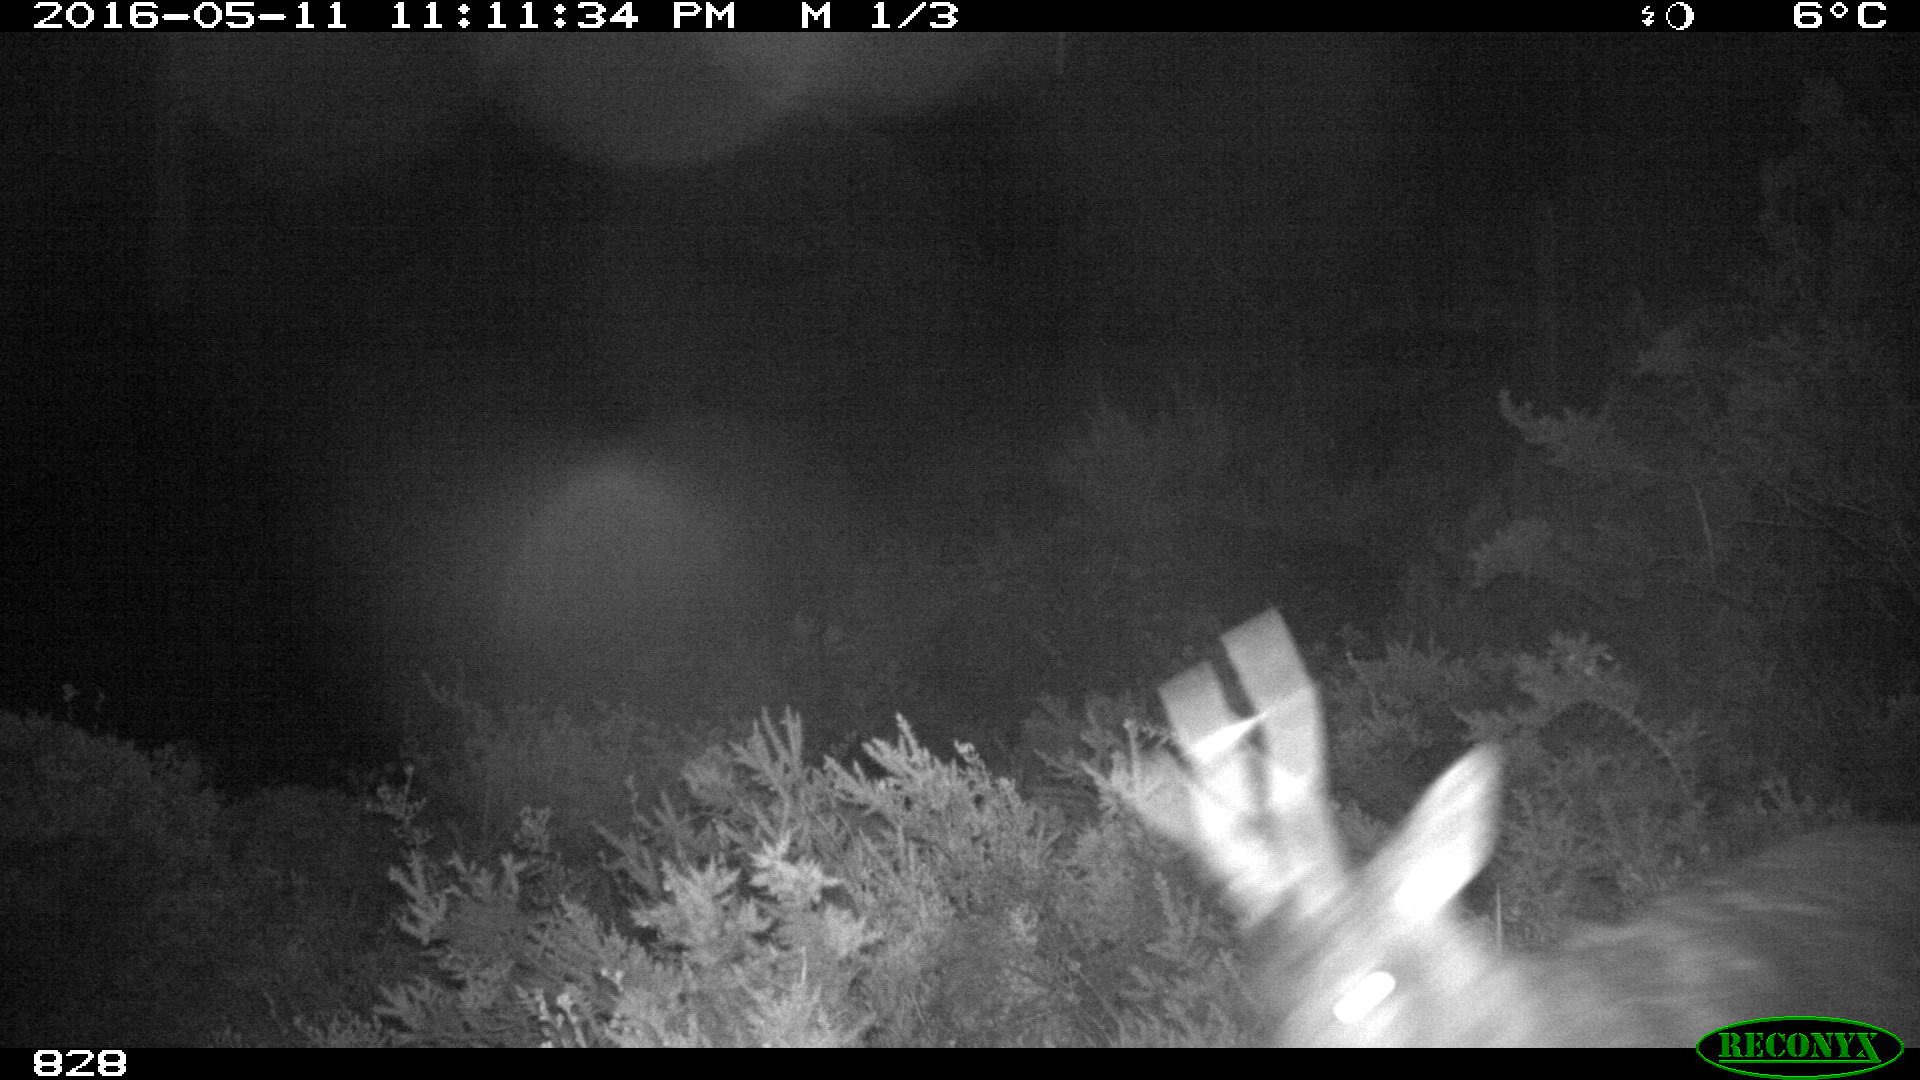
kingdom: Animalia
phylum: Chordata
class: Mammalia
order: Artiodactyla
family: Cervidae
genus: Capreolus
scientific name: Capreolus capreolus
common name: Western roe deer
